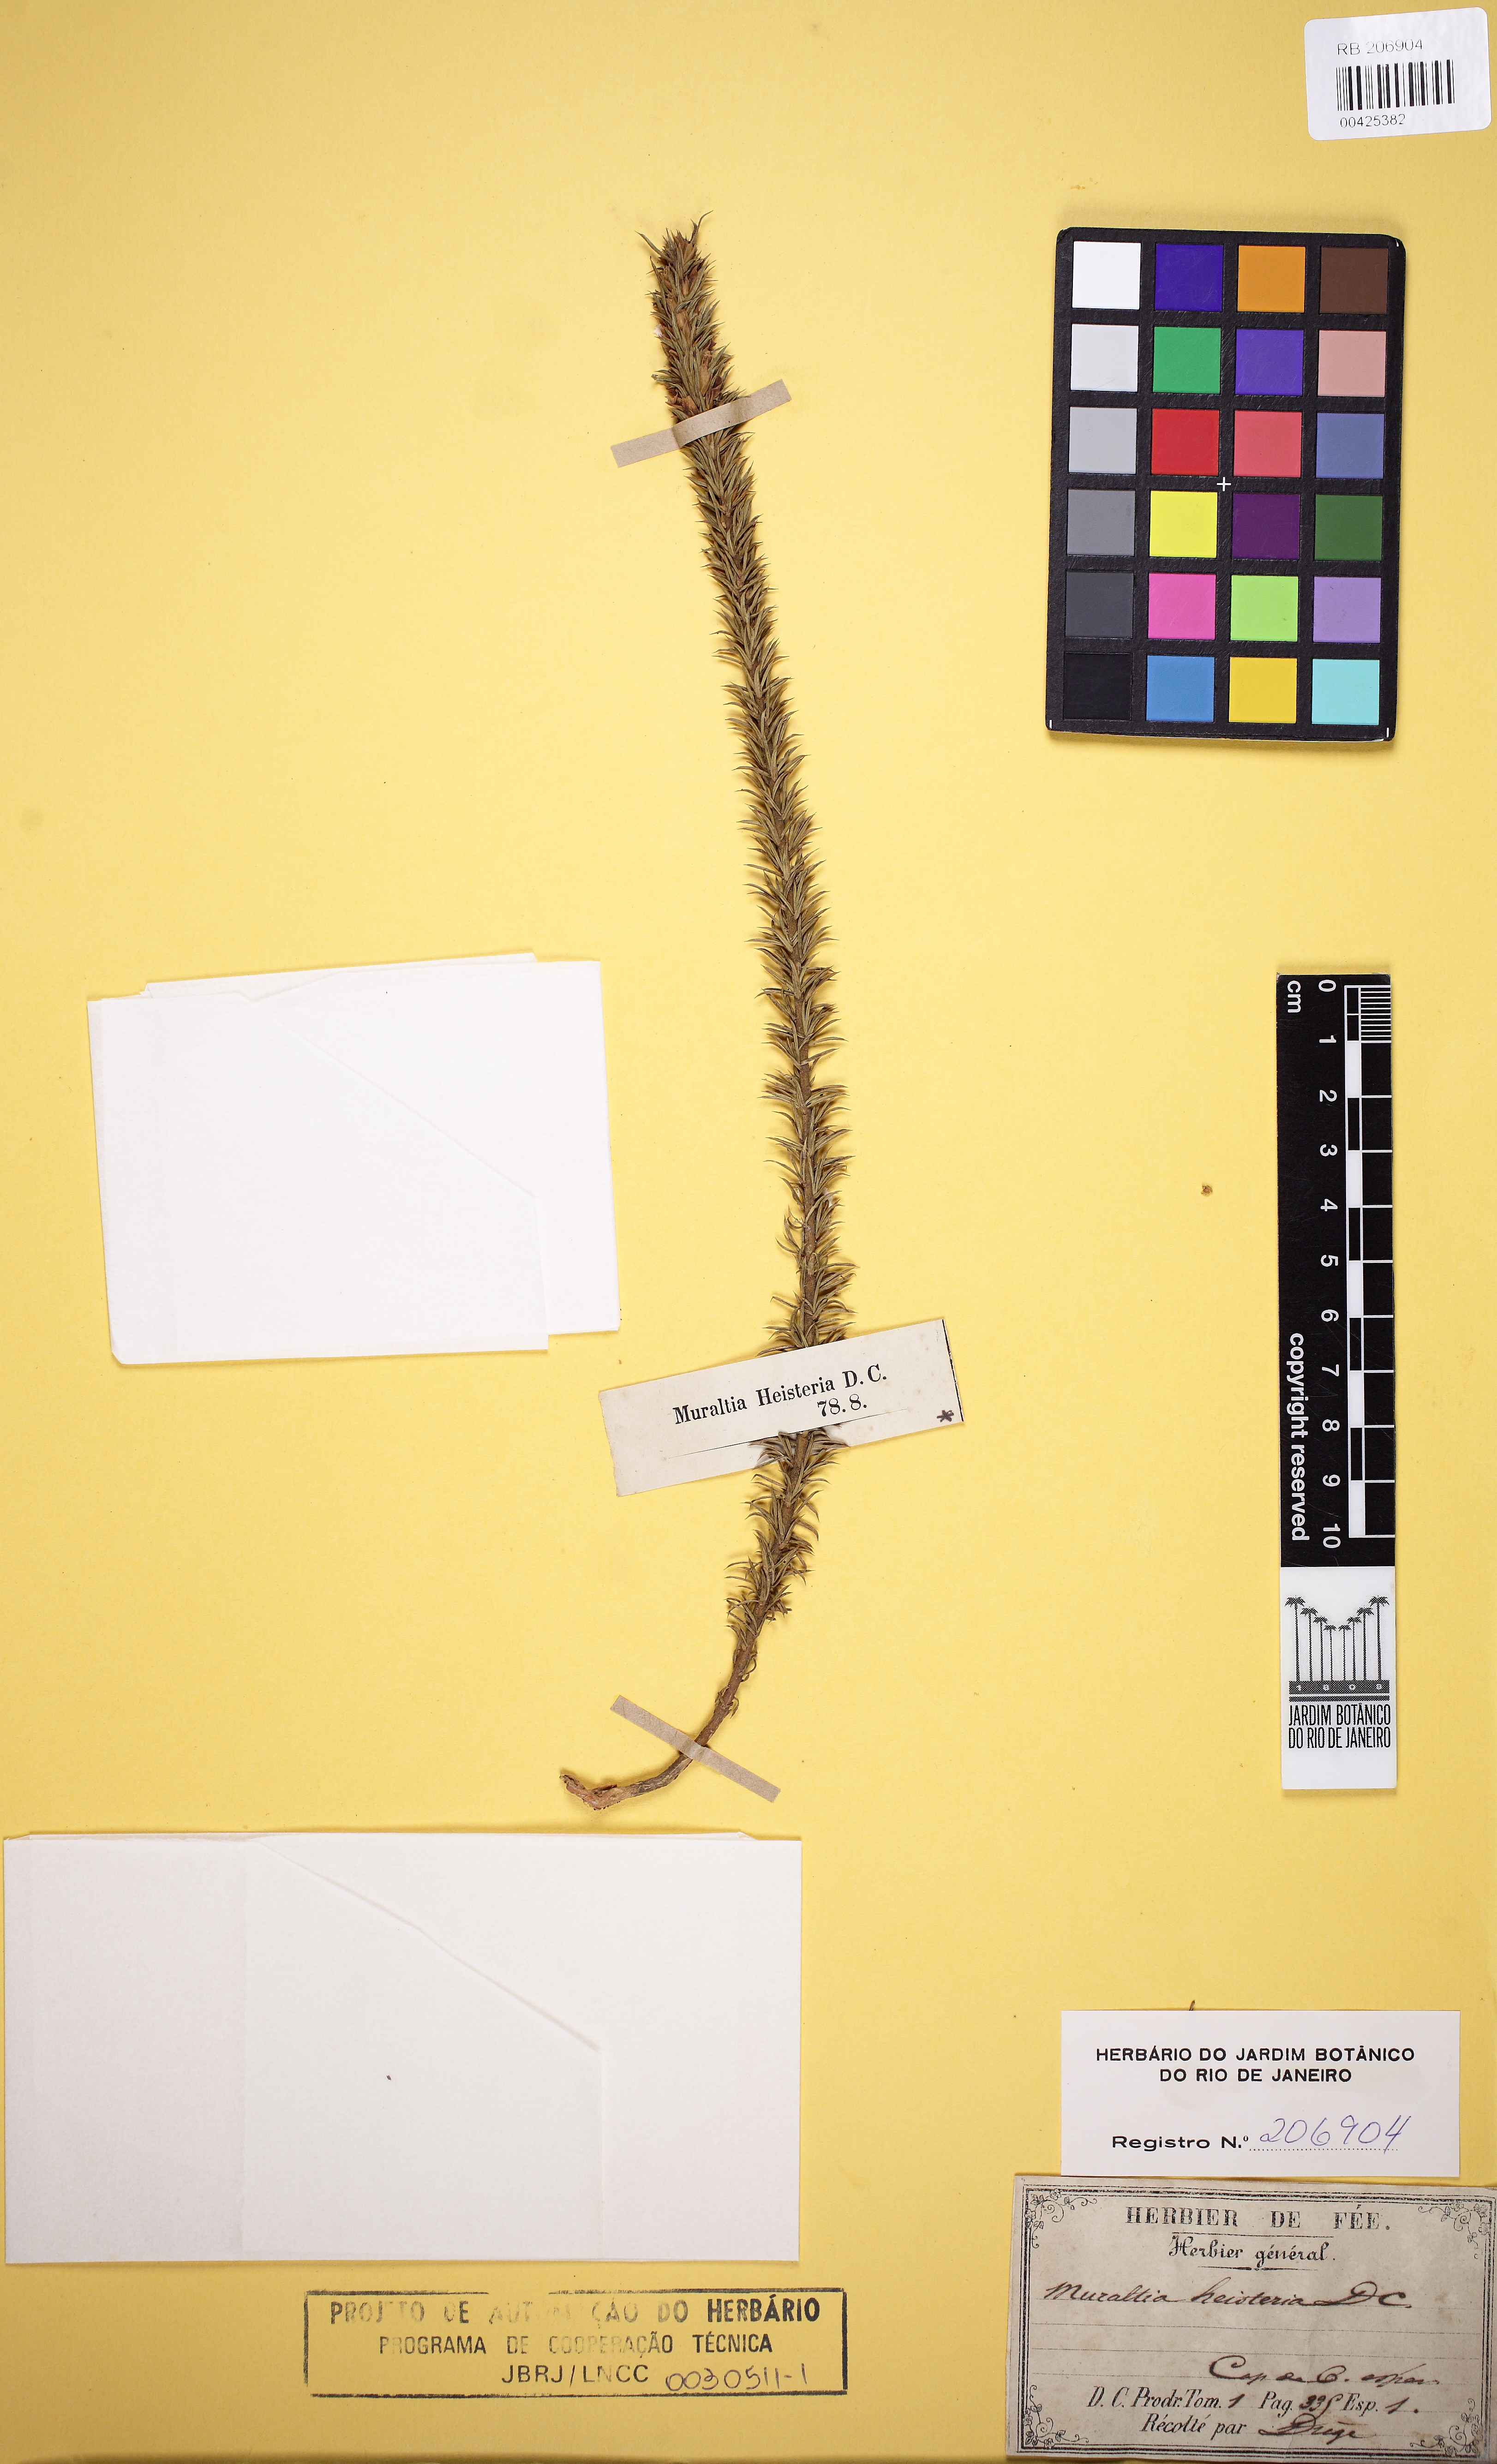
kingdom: Plantae
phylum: Tracheophyta
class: Magnoliopsida
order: Fabales
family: Polygalaceae
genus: Muraltia
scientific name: Muraltia heisteria
